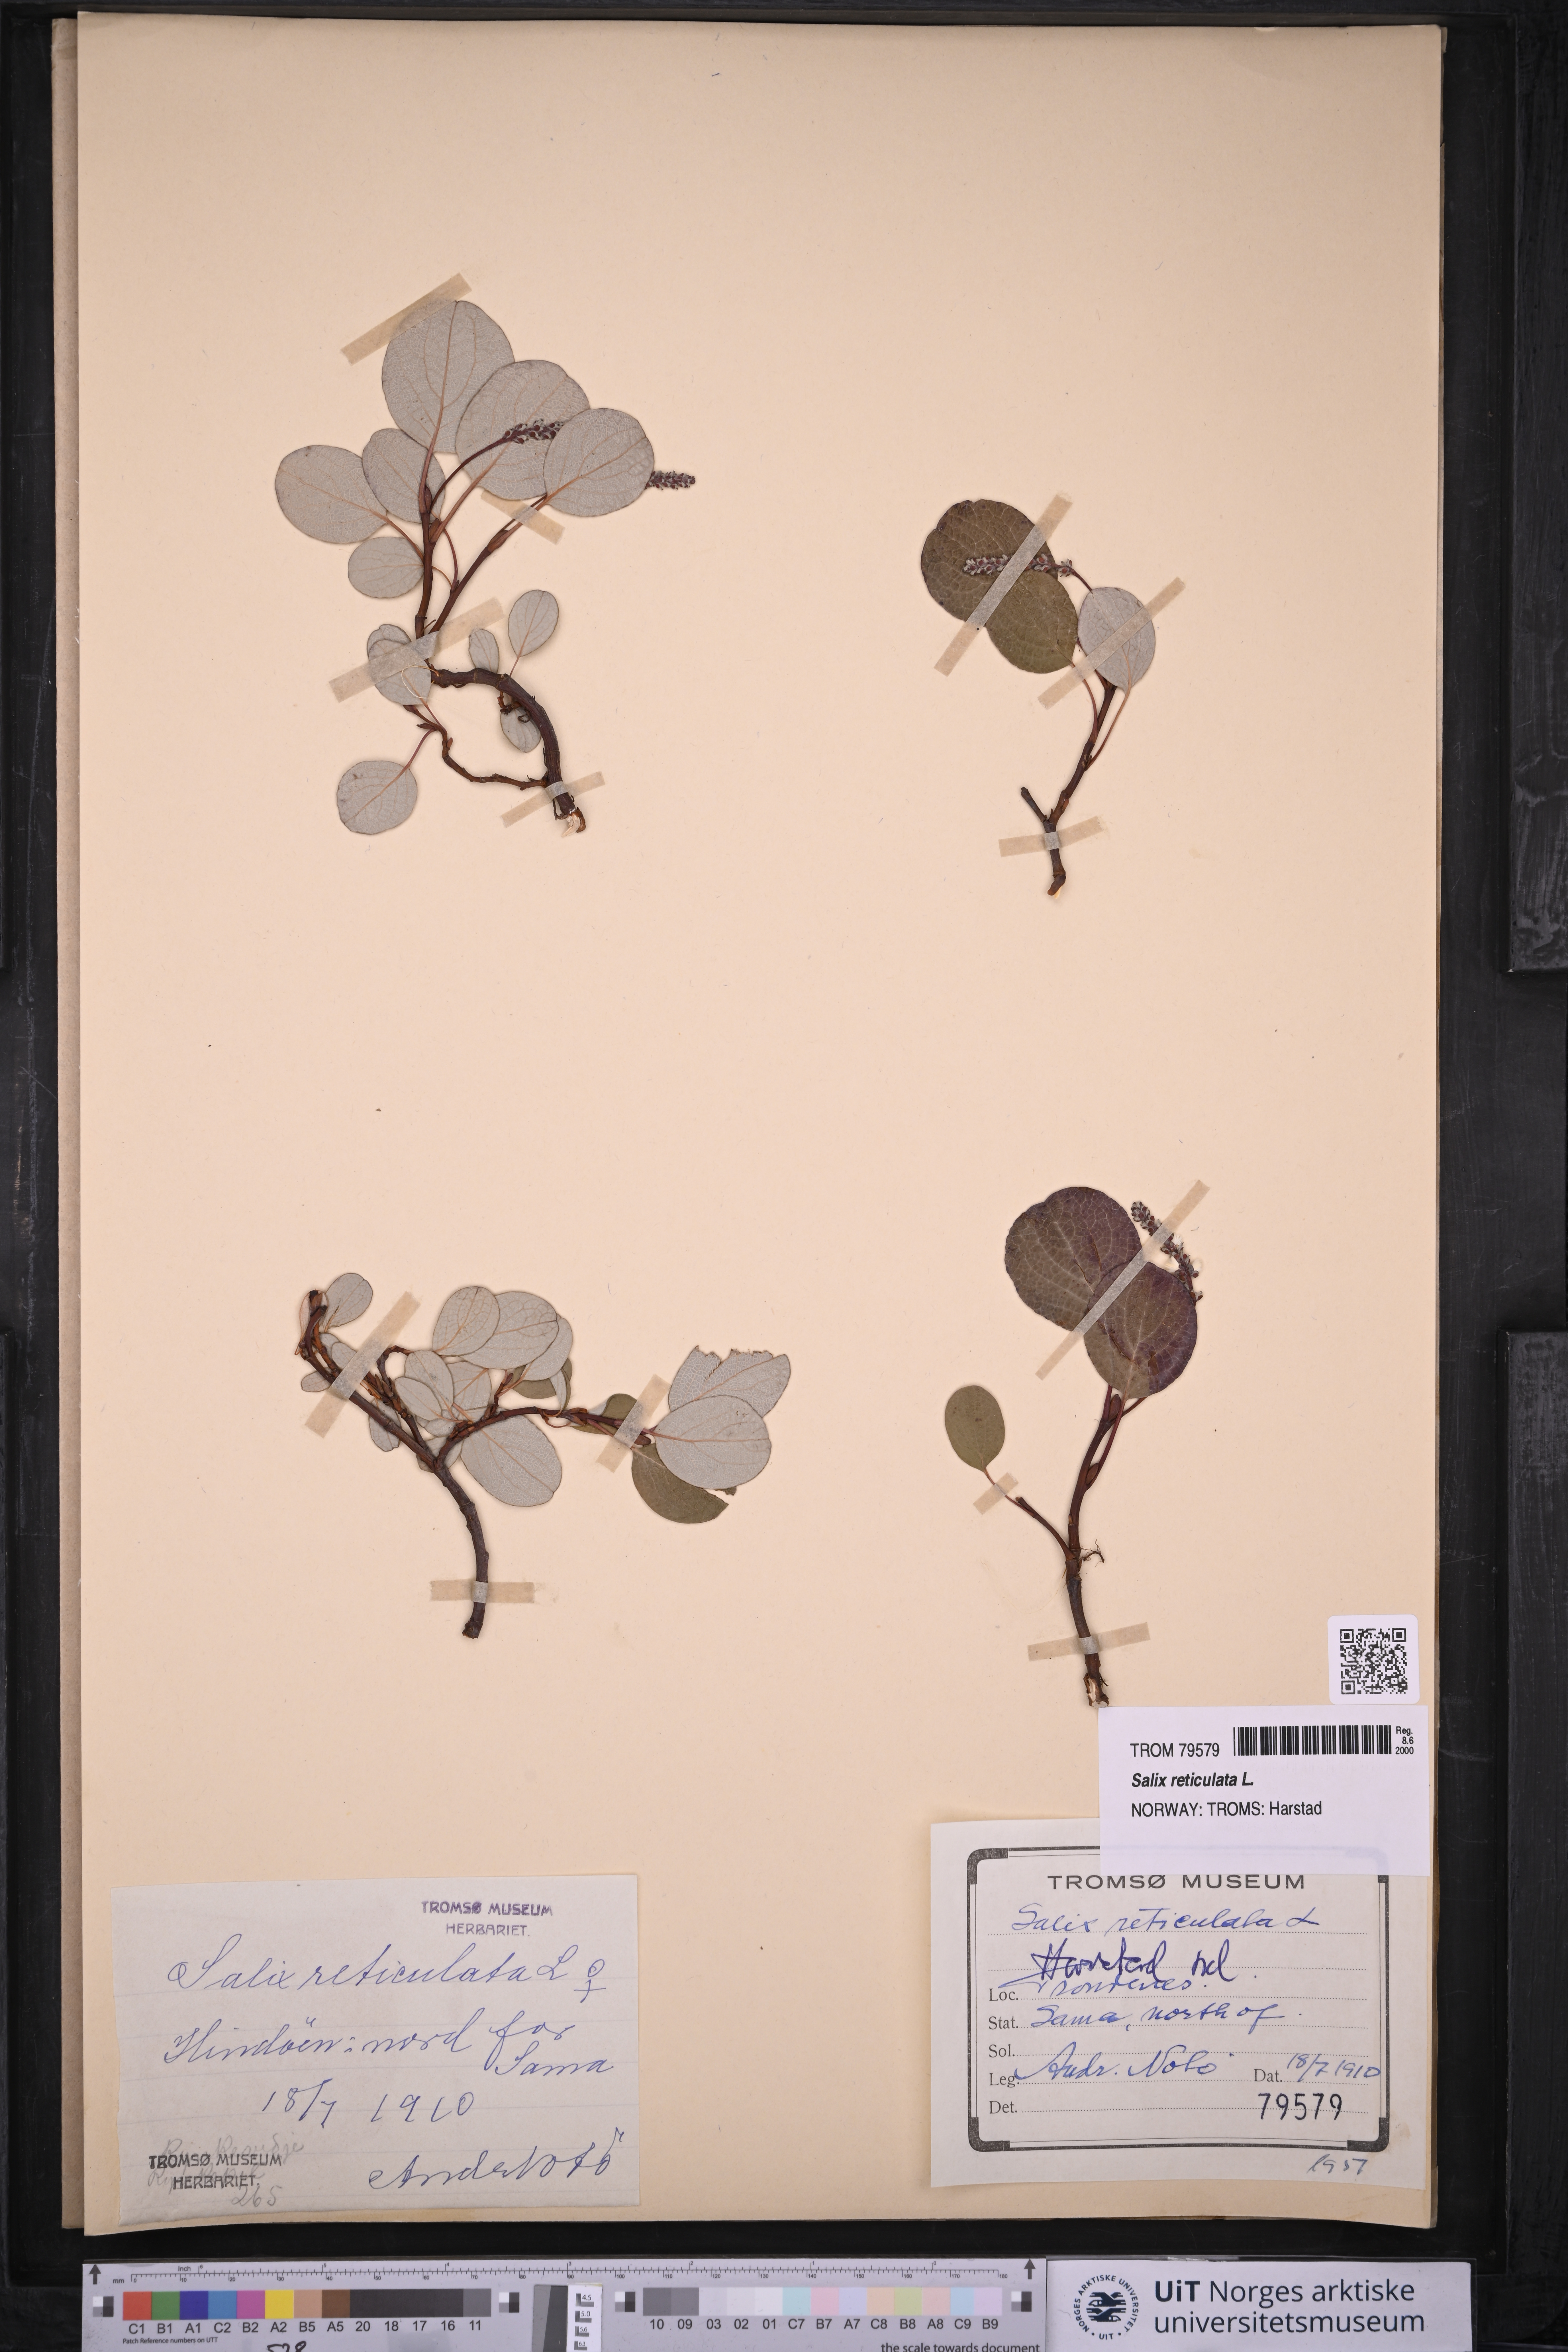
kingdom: Plantae
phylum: Tracheophyta
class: Magnoliopsida
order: Malpighiales
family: Salicaceae
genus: Salix
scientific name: Salix reticulata
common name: Net-leaved willow
